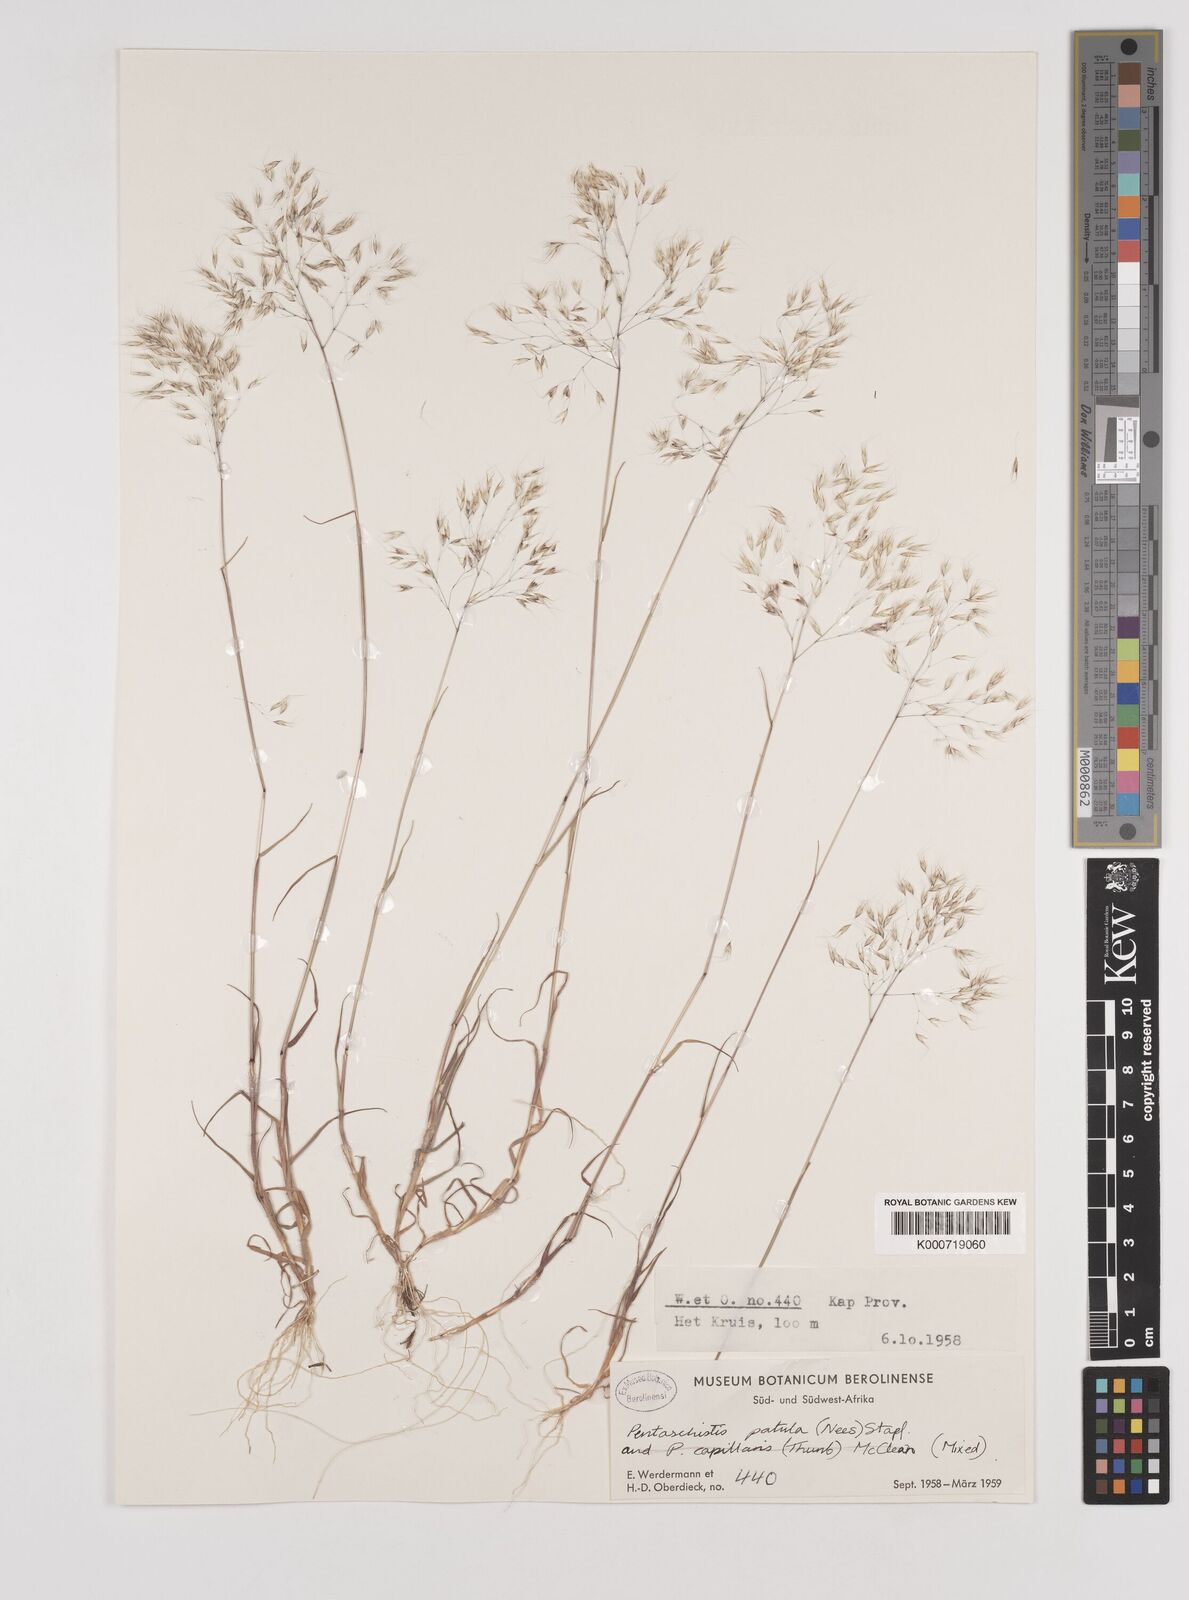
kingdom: Plantae
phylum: Tracheophyta
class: Liliopsida
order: Poales
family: Poaceae
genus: Pentameris
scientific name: Pentameris patula
